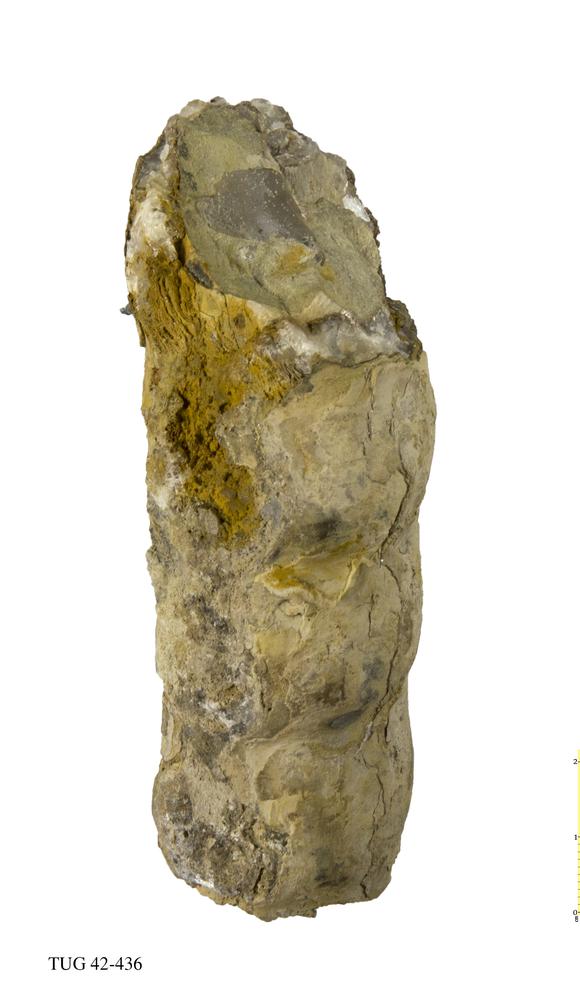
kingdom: Animalia
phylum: Mollusca
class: Cephalopoda
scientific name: Cephalopoda
